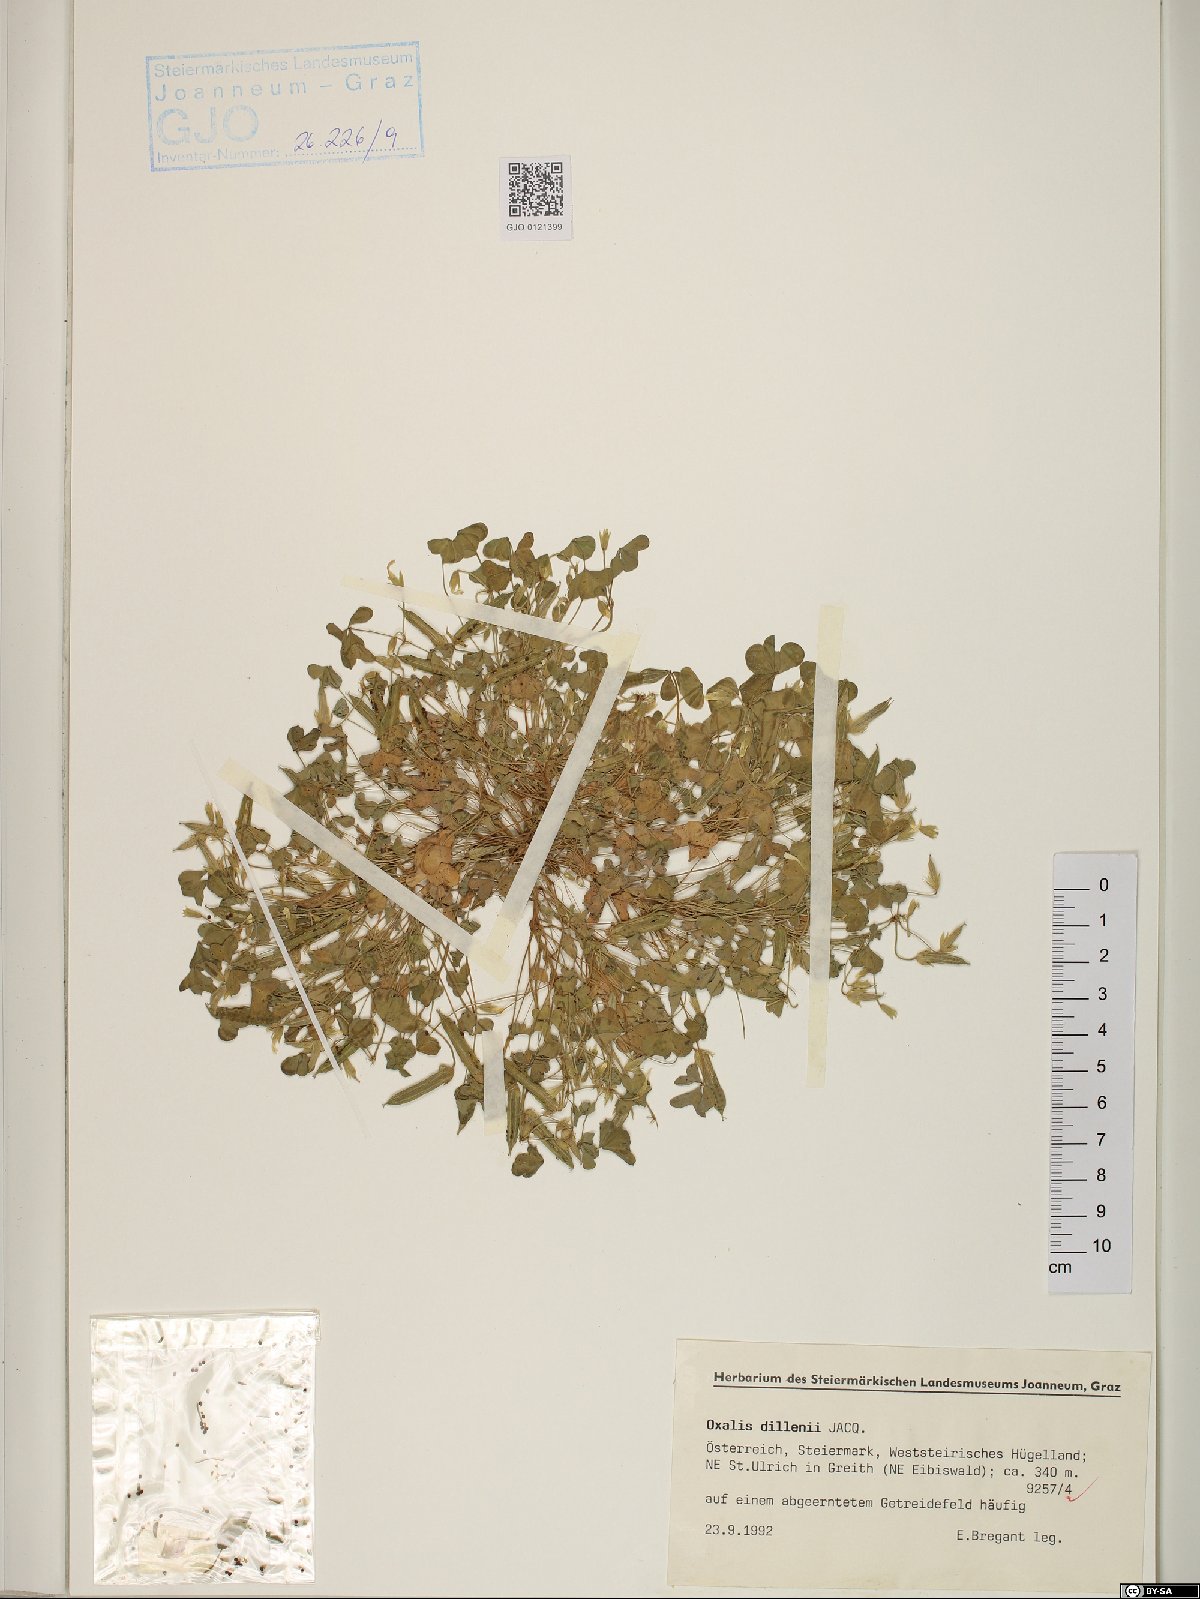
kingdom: Plantae
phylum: Tracheophyta
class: Magnoliopsida
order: Oxalidales
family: Oxalidaceae
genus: Oxalis
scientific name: Oxalis dillenii
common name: Sussex yellow-sorrel
